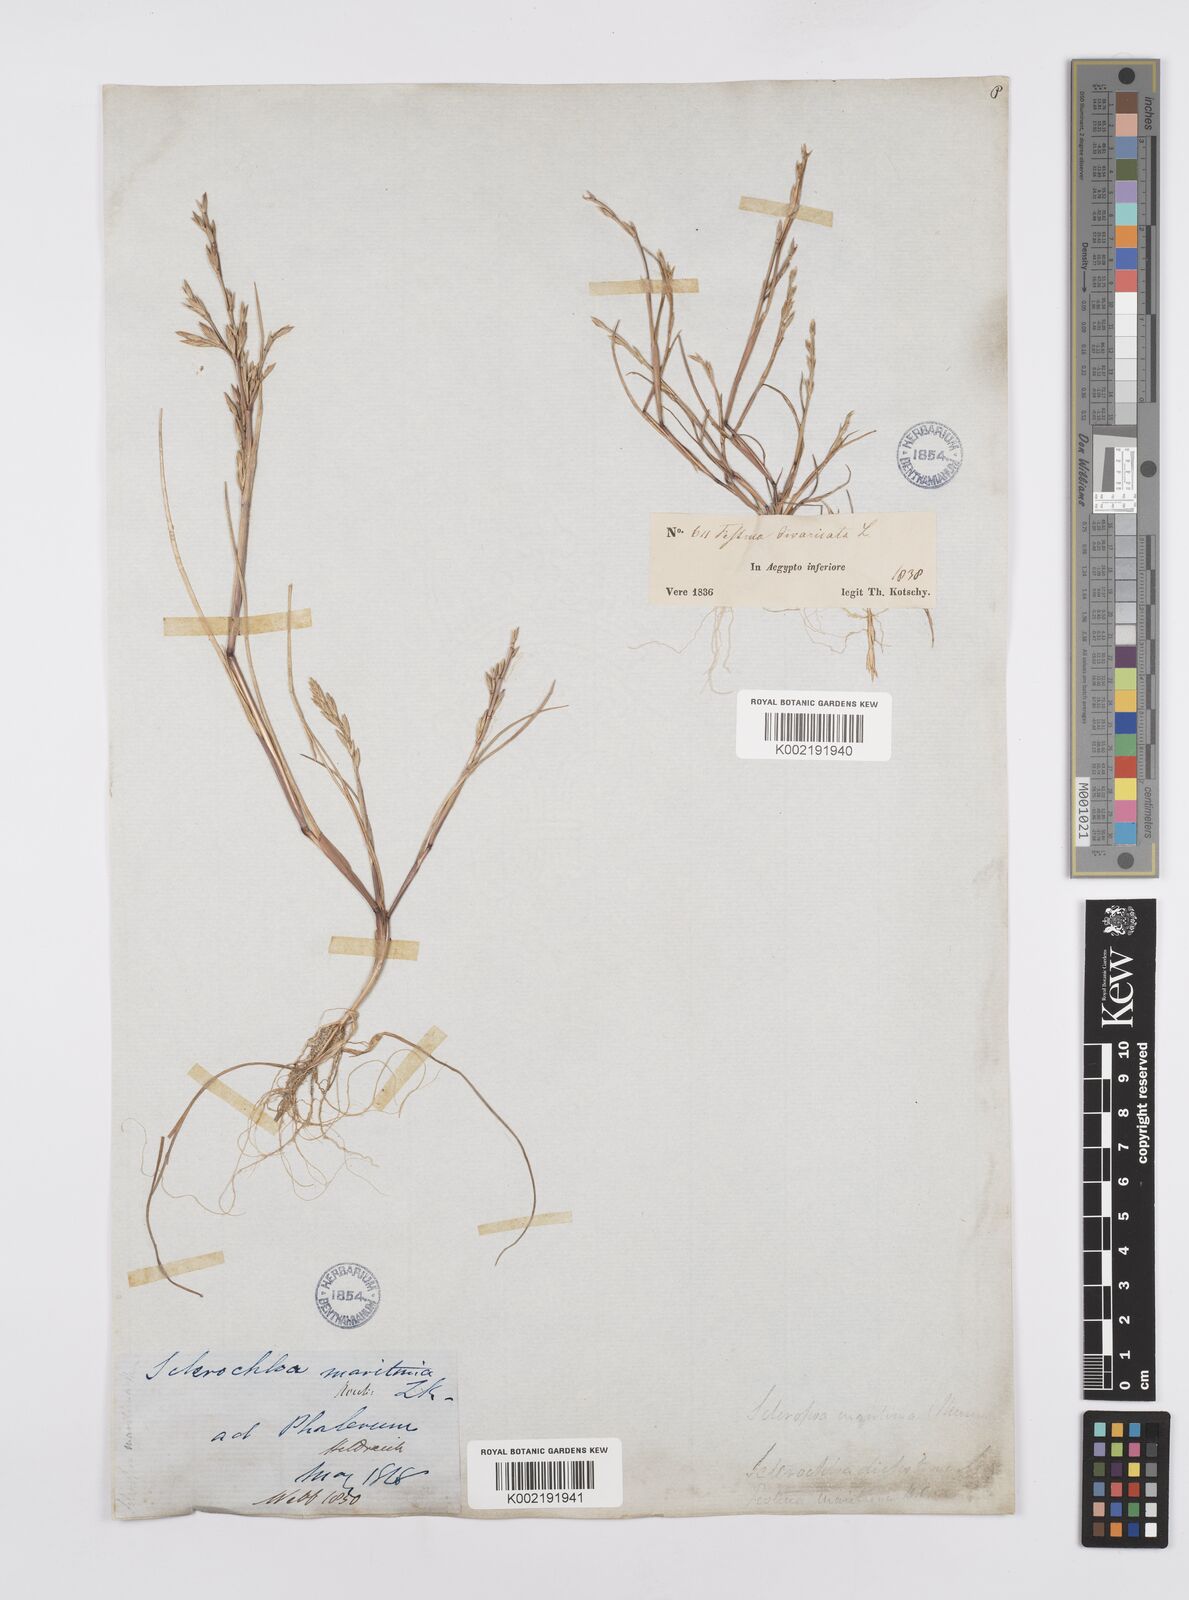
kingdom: Plantae
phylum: Tracheophyta
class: Liliopsida
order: Poales
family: Poaceae
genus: Cutandia
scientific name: Cutandia maritima
